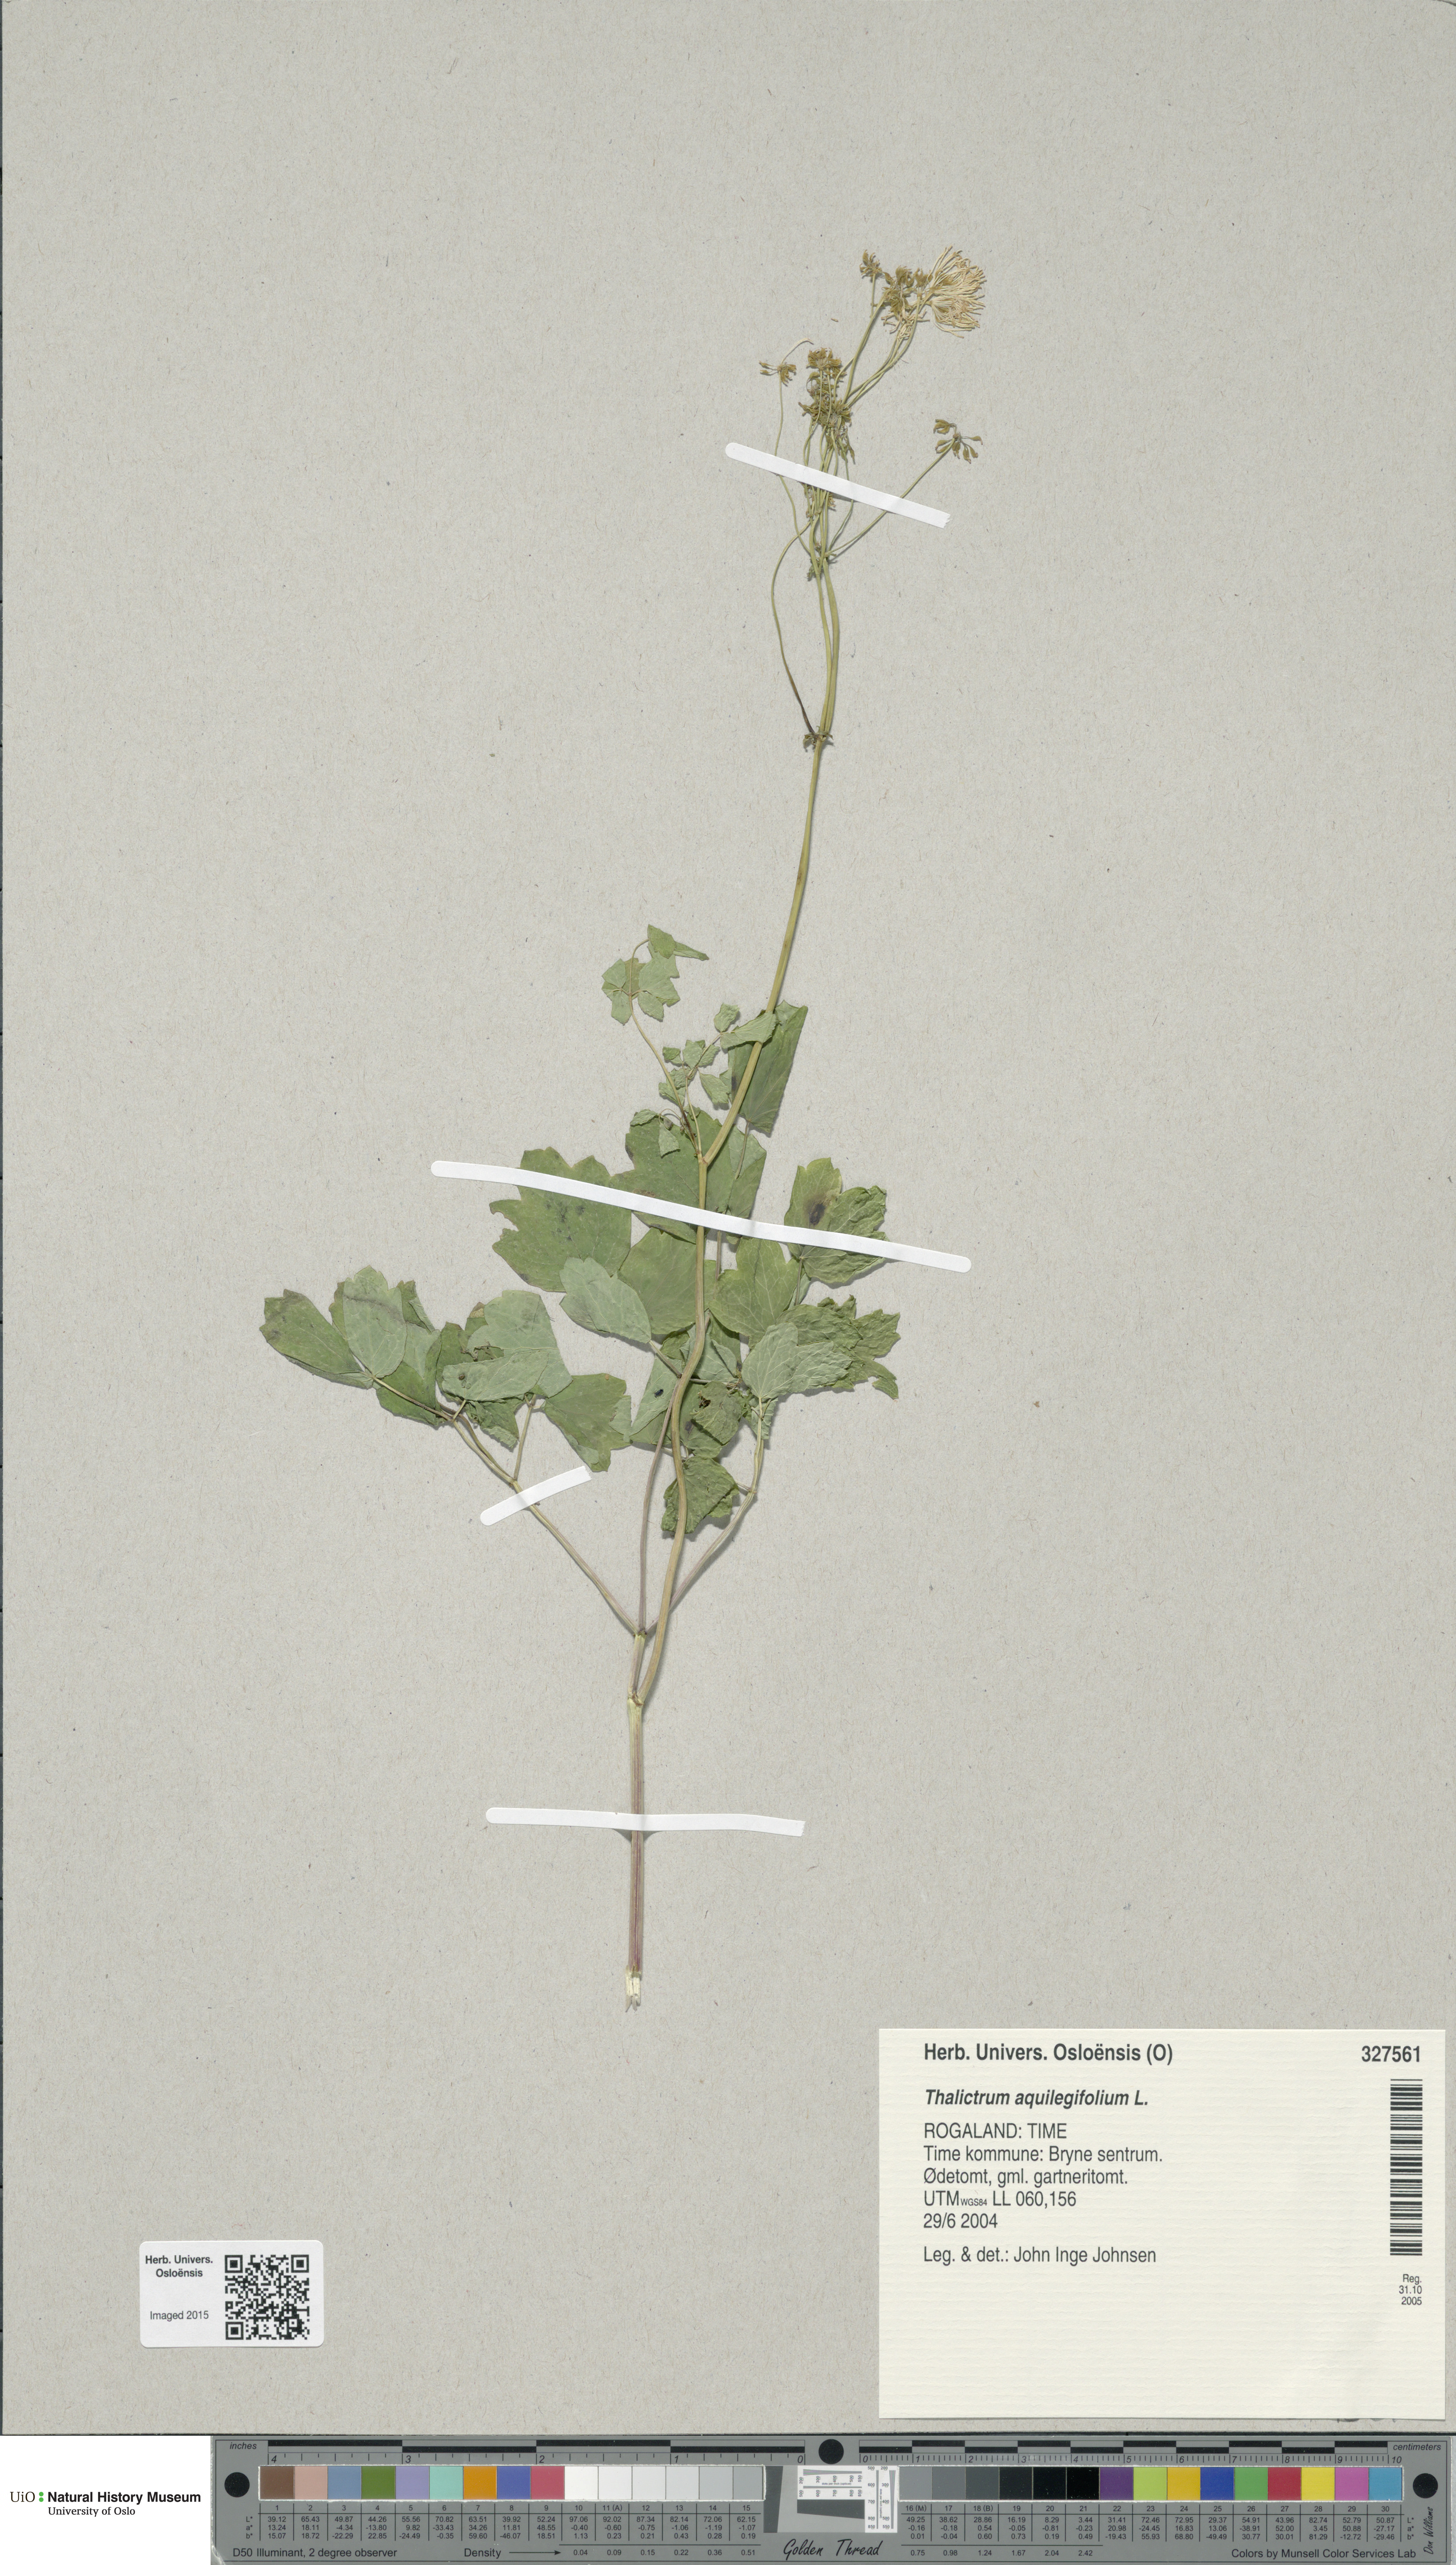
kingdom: Plantae
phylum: Tracheophyta
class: Magnoliopsida
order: Ranunculales
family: Ranunculaceae
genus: Thalictrum
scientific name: Thalictrum aquilegiifolium
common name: French meadow-rue
